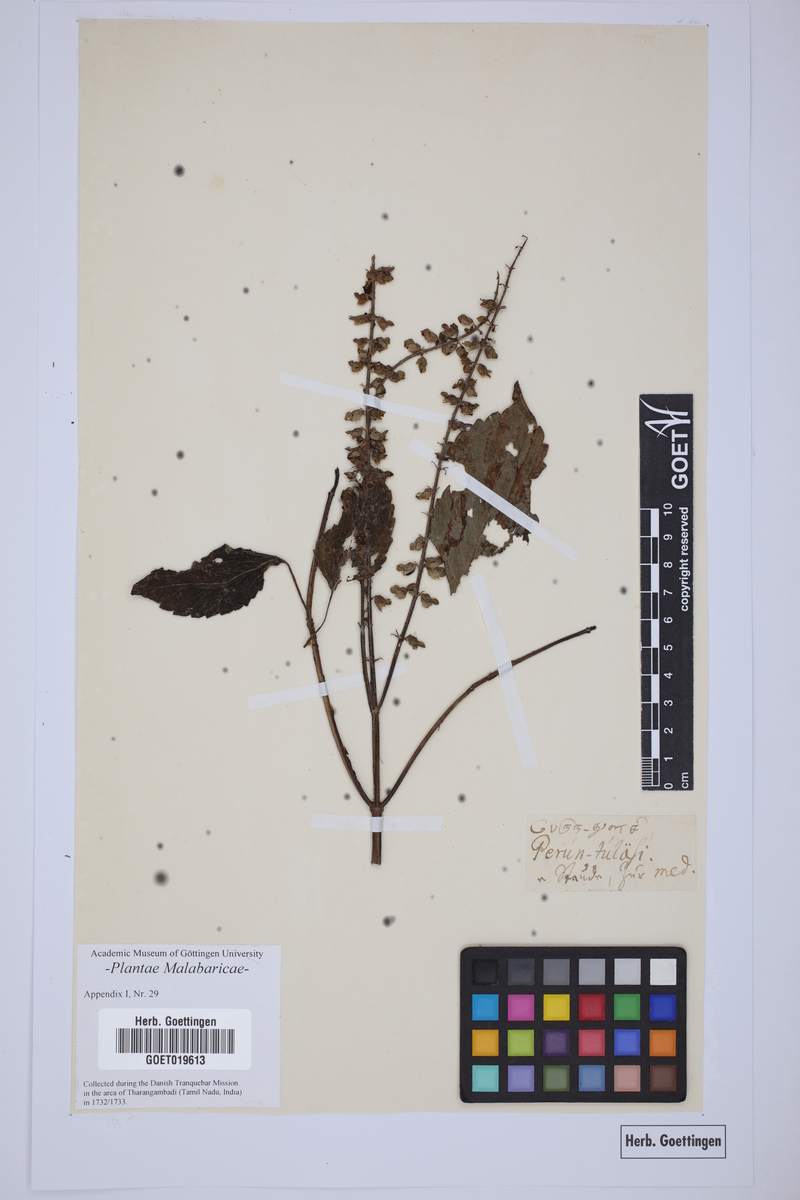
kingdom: Plantae
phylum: Tracheophyta
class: Magnoliopsida
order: Lamiales
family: Lamiaceae
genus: Equilabium
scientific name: Equilabium molle
